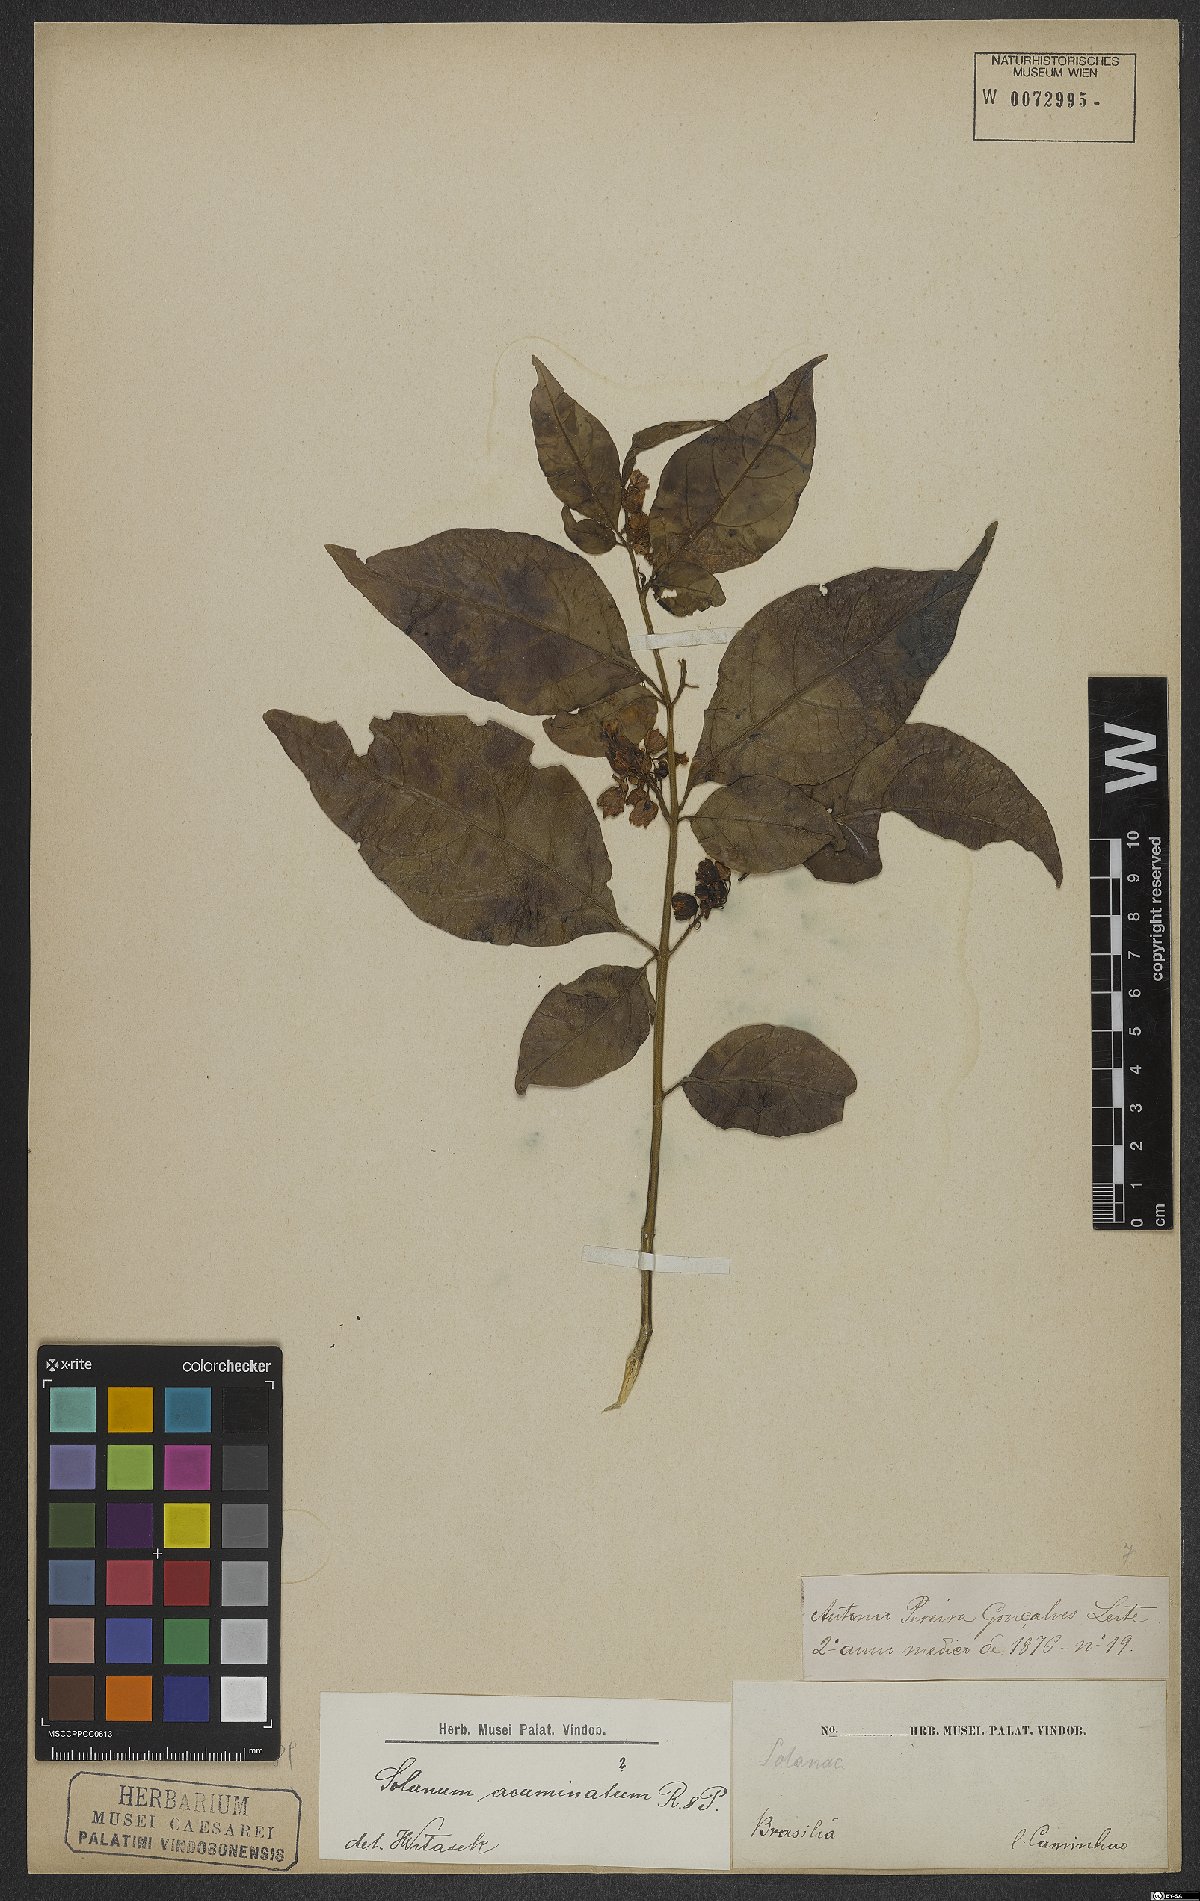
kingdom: Plantae
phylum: Tracheophyta
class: Magnoliopsida
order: Solanales
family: Solanaceae
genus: Solanum
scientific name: Solanum acuminatum
